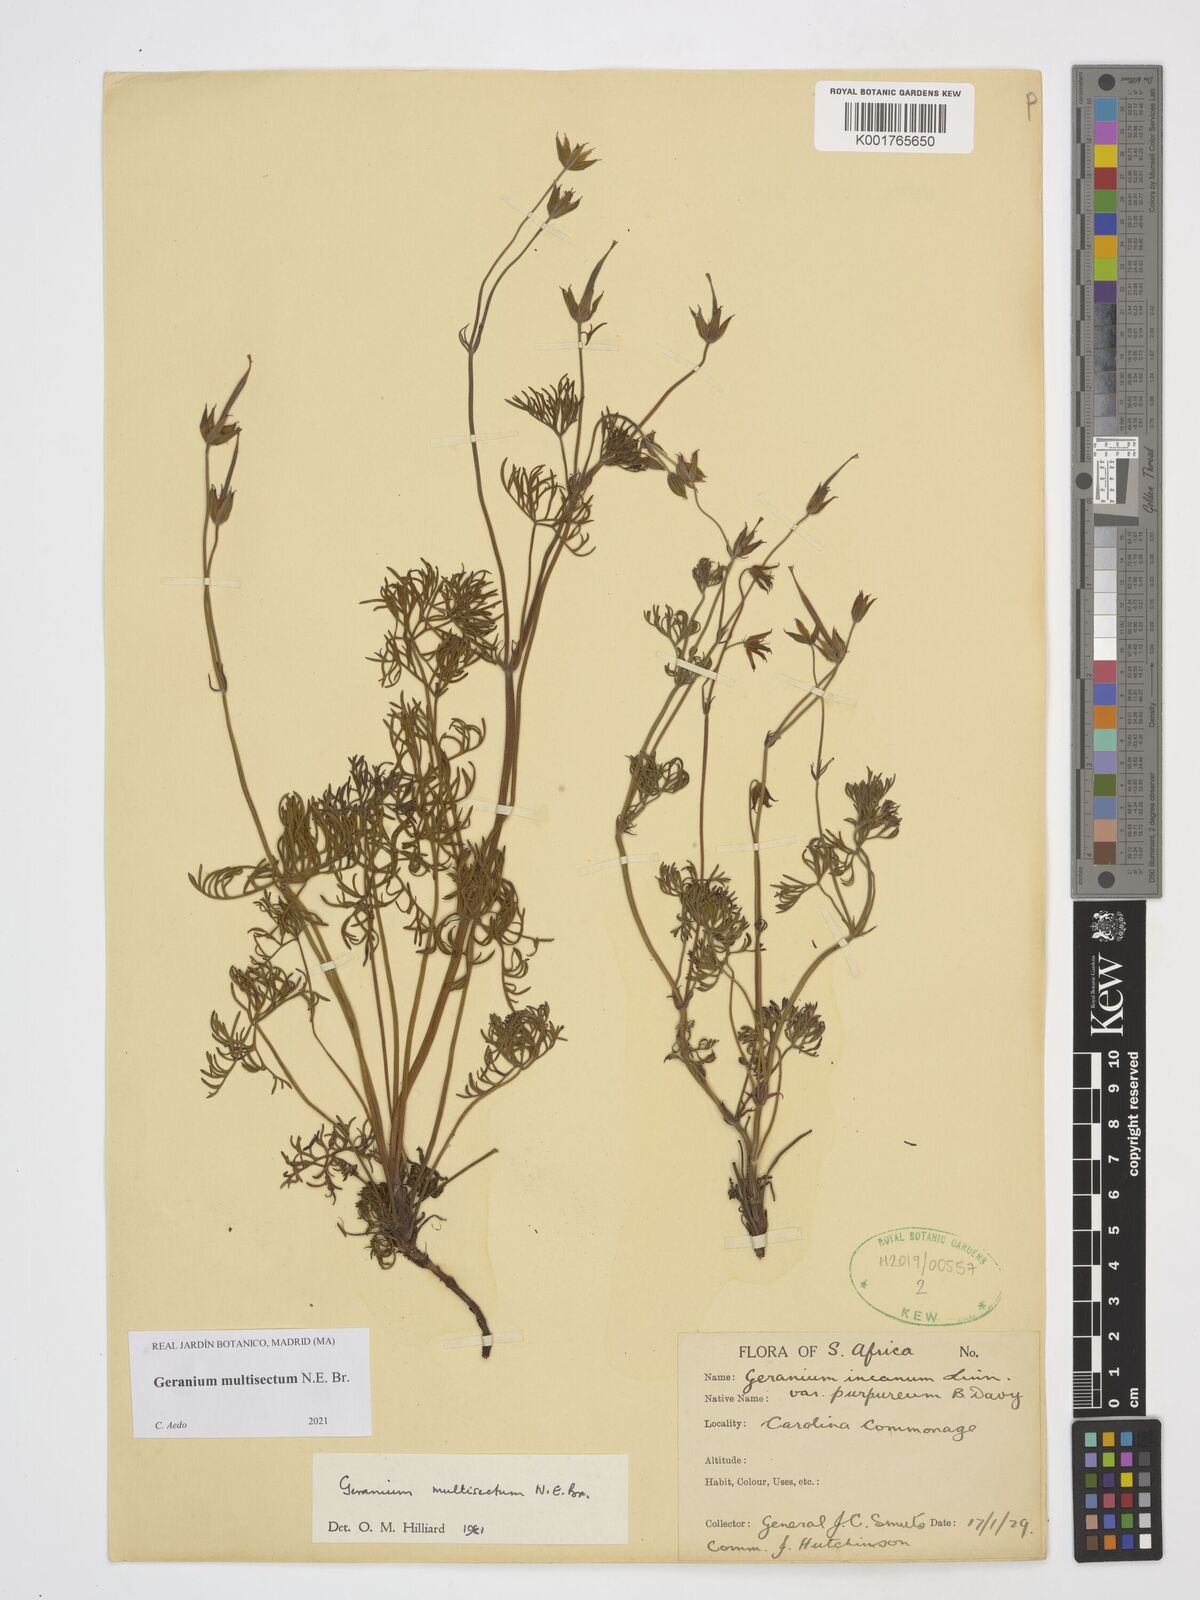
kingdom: Plantae
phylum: Tracheophyta
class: Magnoliopsida
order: Geraniales
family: Geraniaceae
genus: Geranium
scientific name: Geranium multisectum
